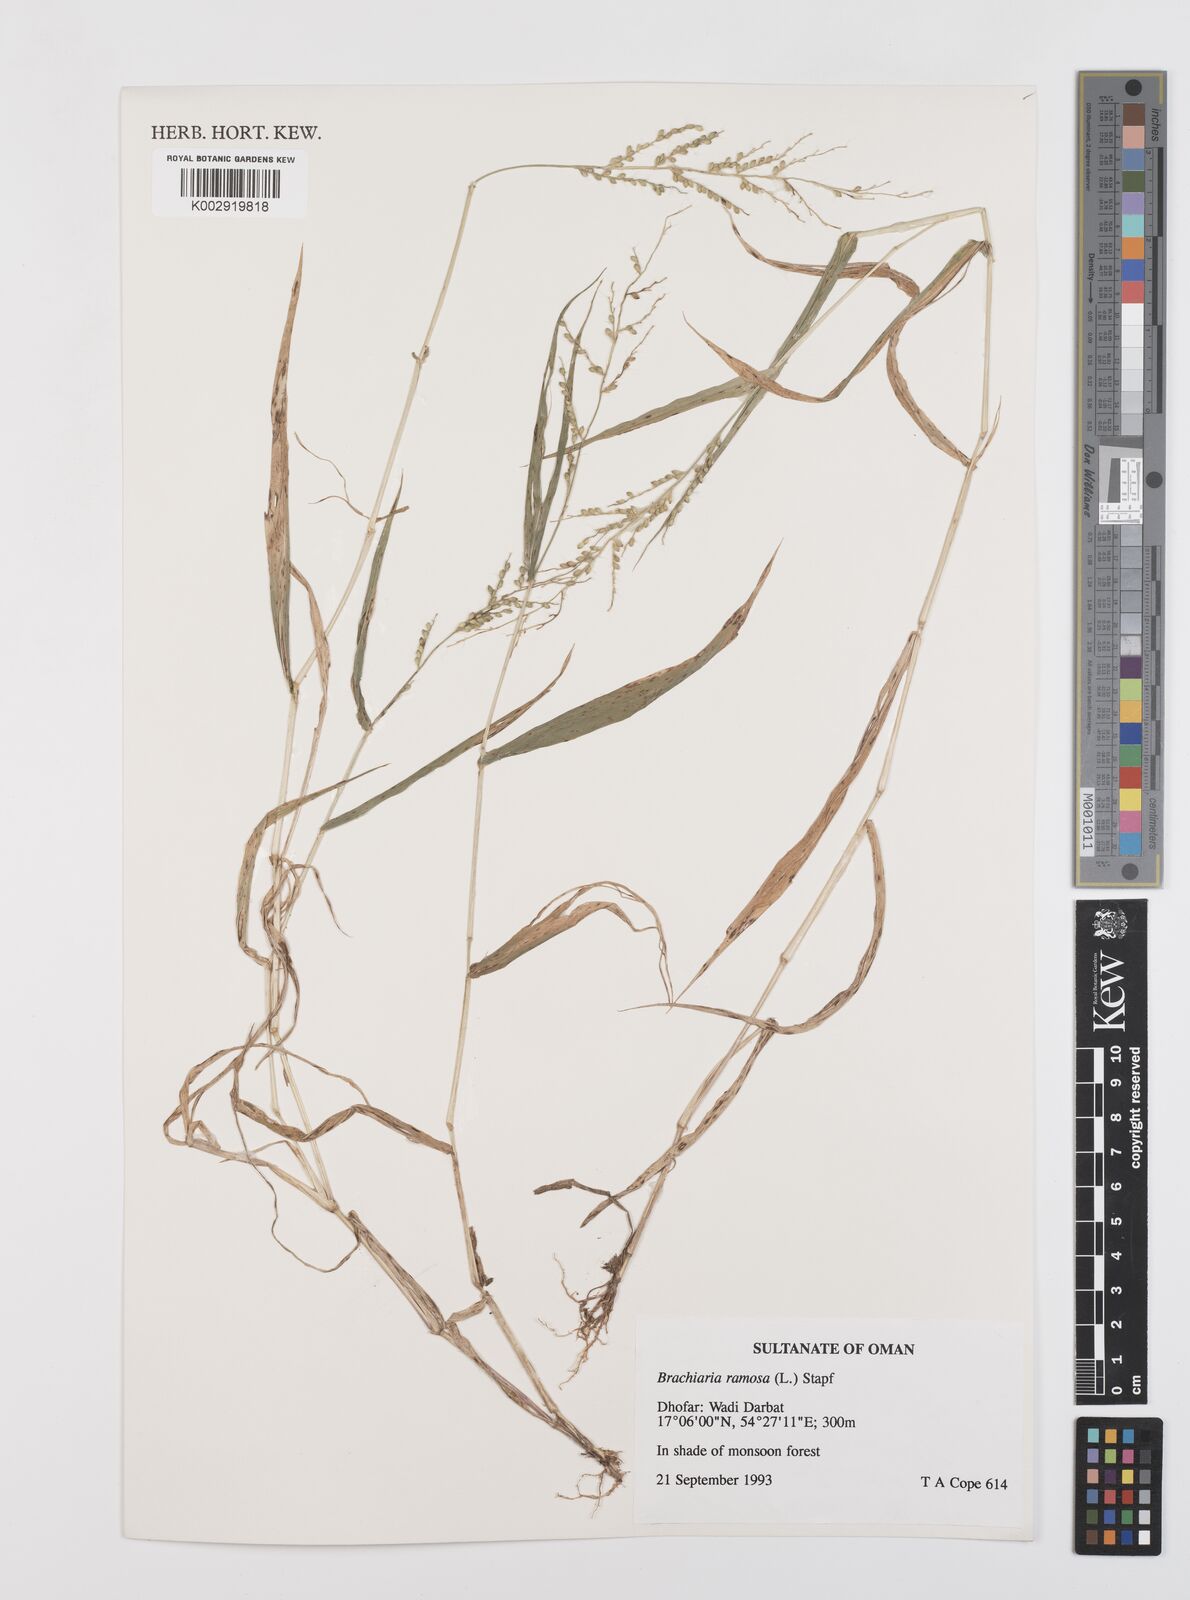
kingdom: Plantae
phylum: Tracheophyta
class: Liliopsida
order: Poales
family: Poaceae
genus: Urochloa
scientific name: Urochloa ramosa
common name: Browntop millet
